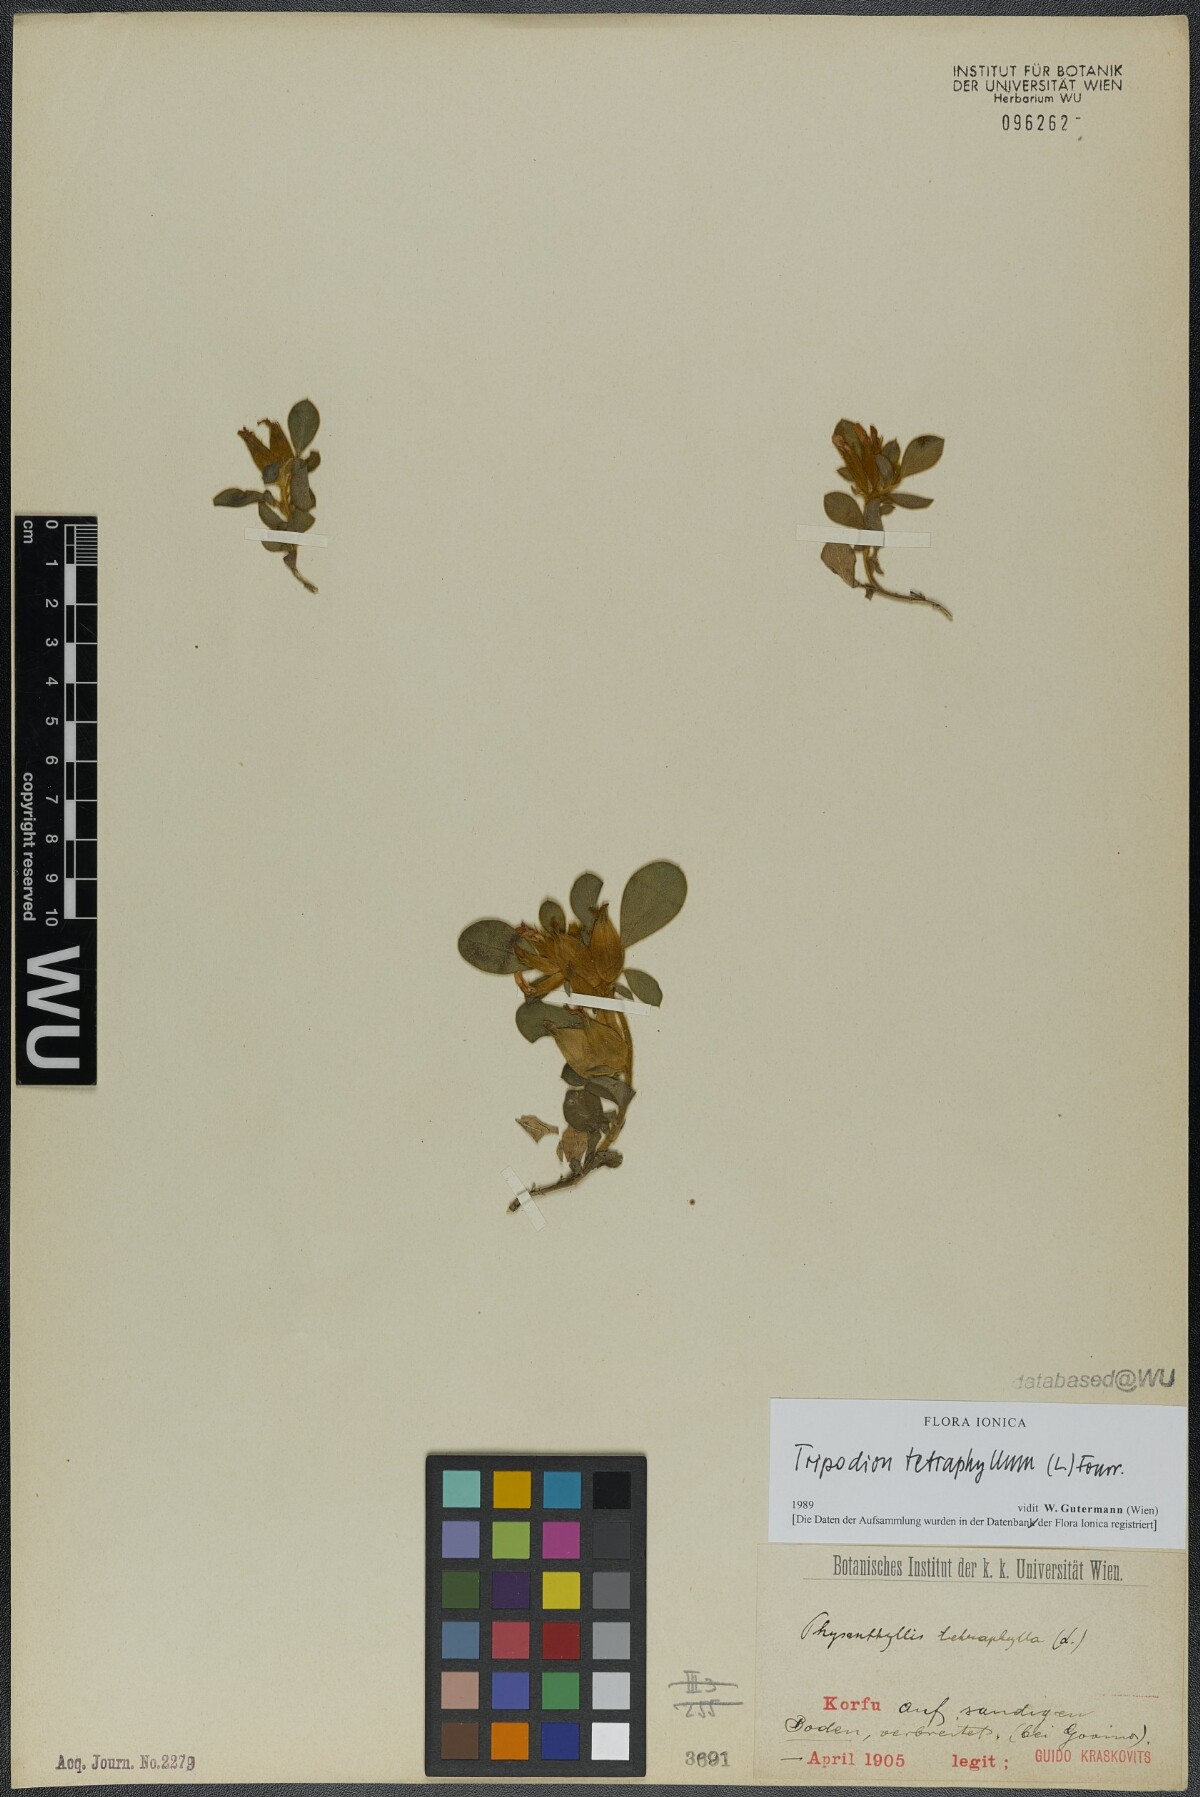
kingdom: Plantae
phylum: Tracheophyta
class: Magnoliopsida
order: Fabales
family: Fabaceae
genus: Tripodion
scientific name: Tripodion tetraphyllum
